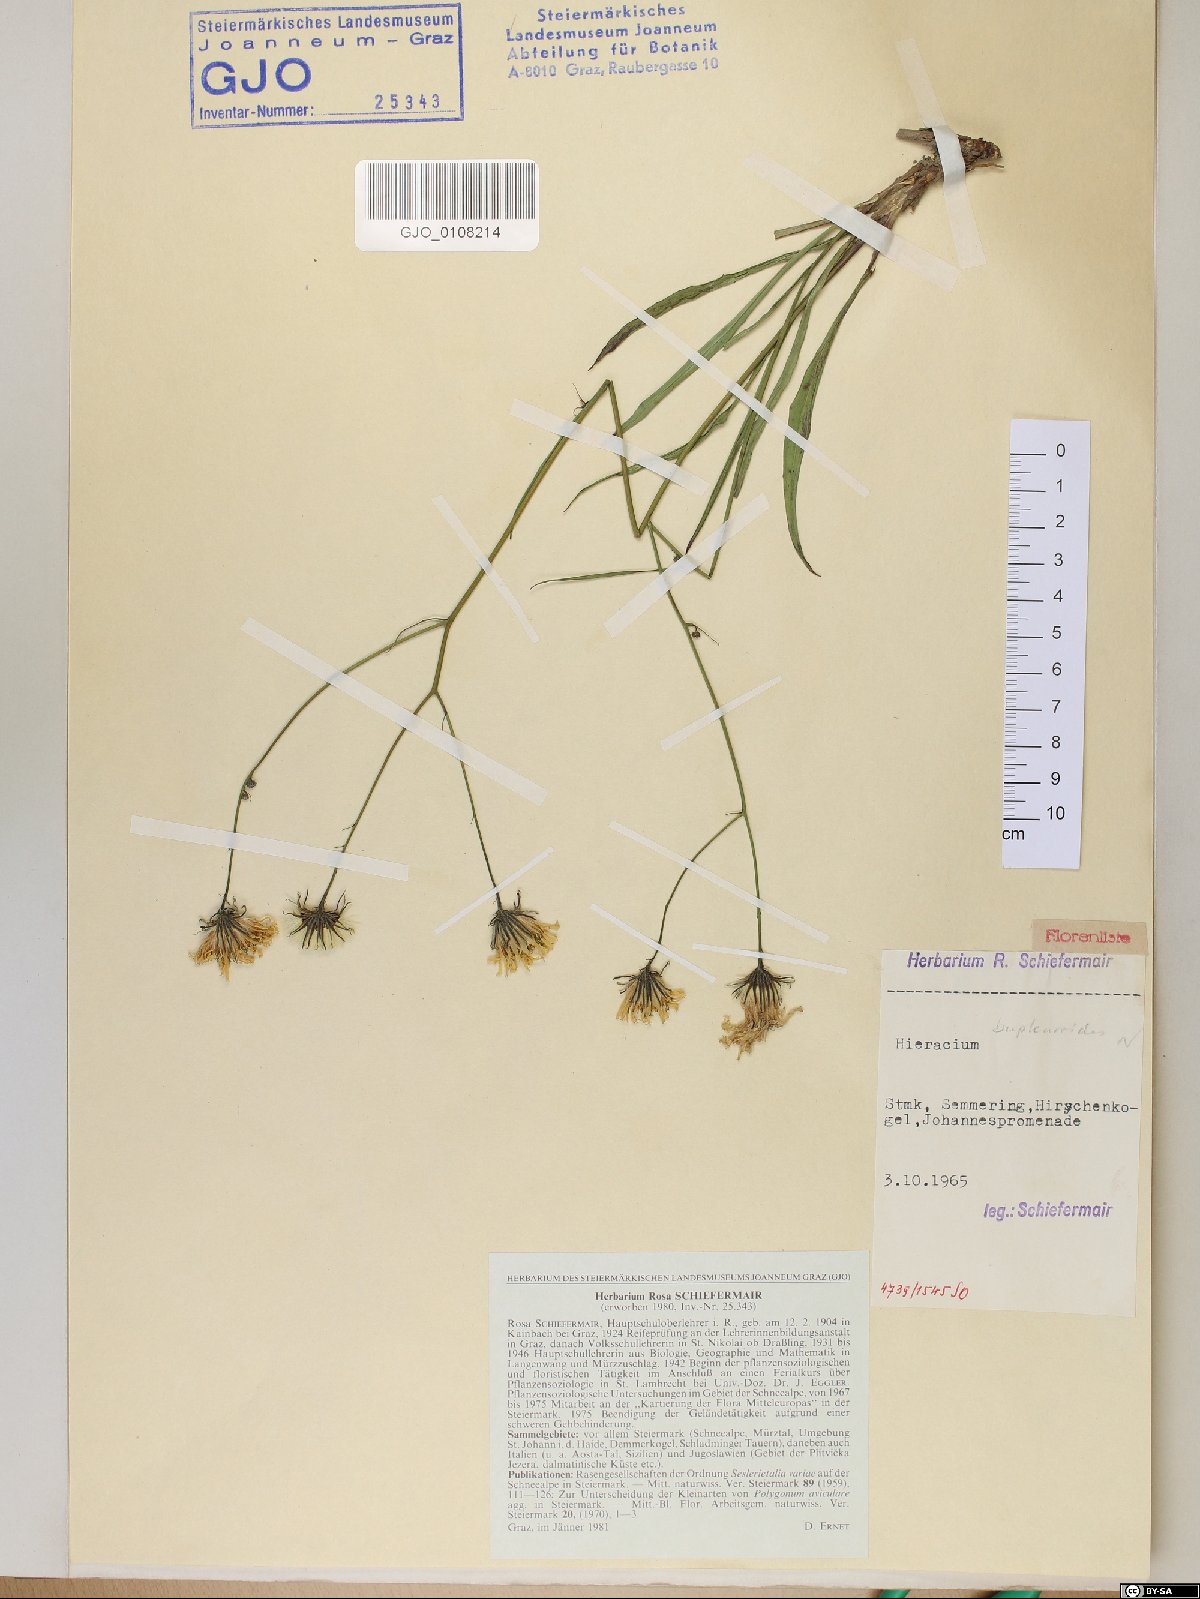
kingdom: Plantae
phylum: Tracheophyta
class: Magnoliopsida
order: Asterales
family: Asteraceae
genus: Hieracium
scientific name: Hieracium bupleuroides
